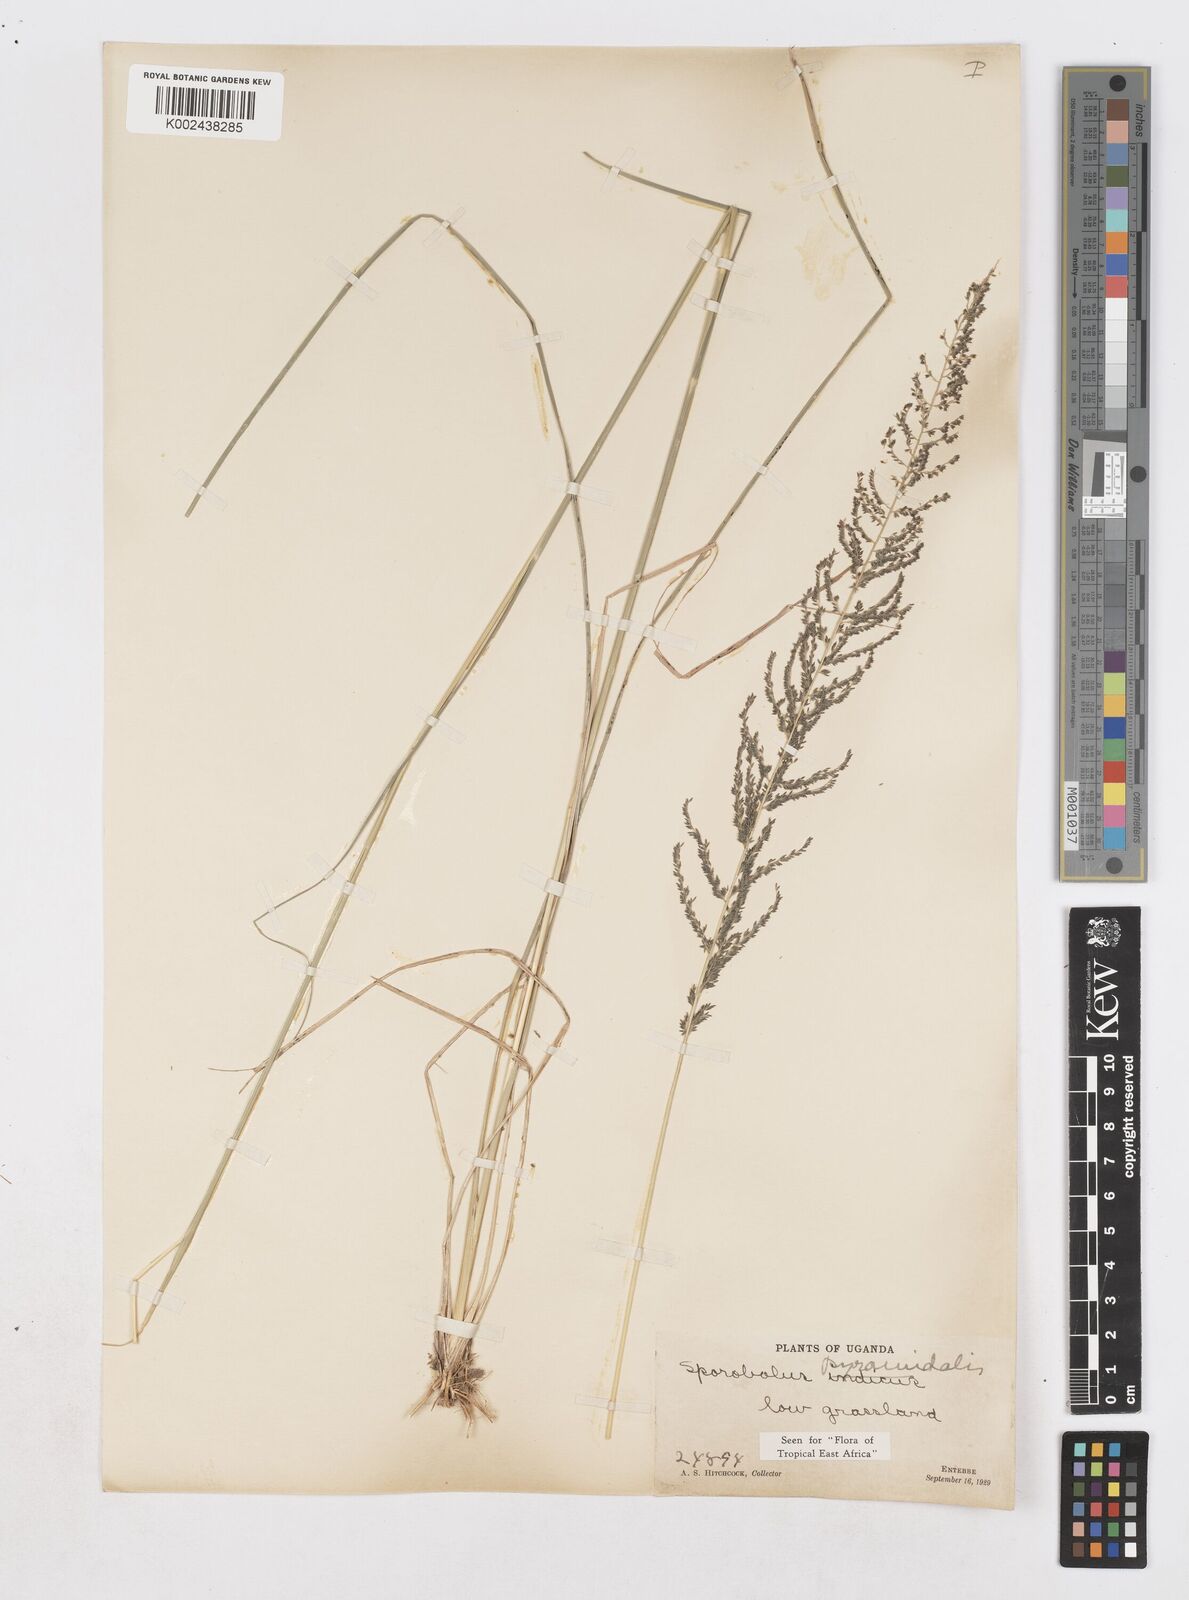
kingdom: Plantae
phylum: Tracheophyta
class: Liliopsida
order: Poales
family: Poaceae
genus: Sporobolus
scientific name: Sporobolus pyramidalis
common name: West indian dropseed
